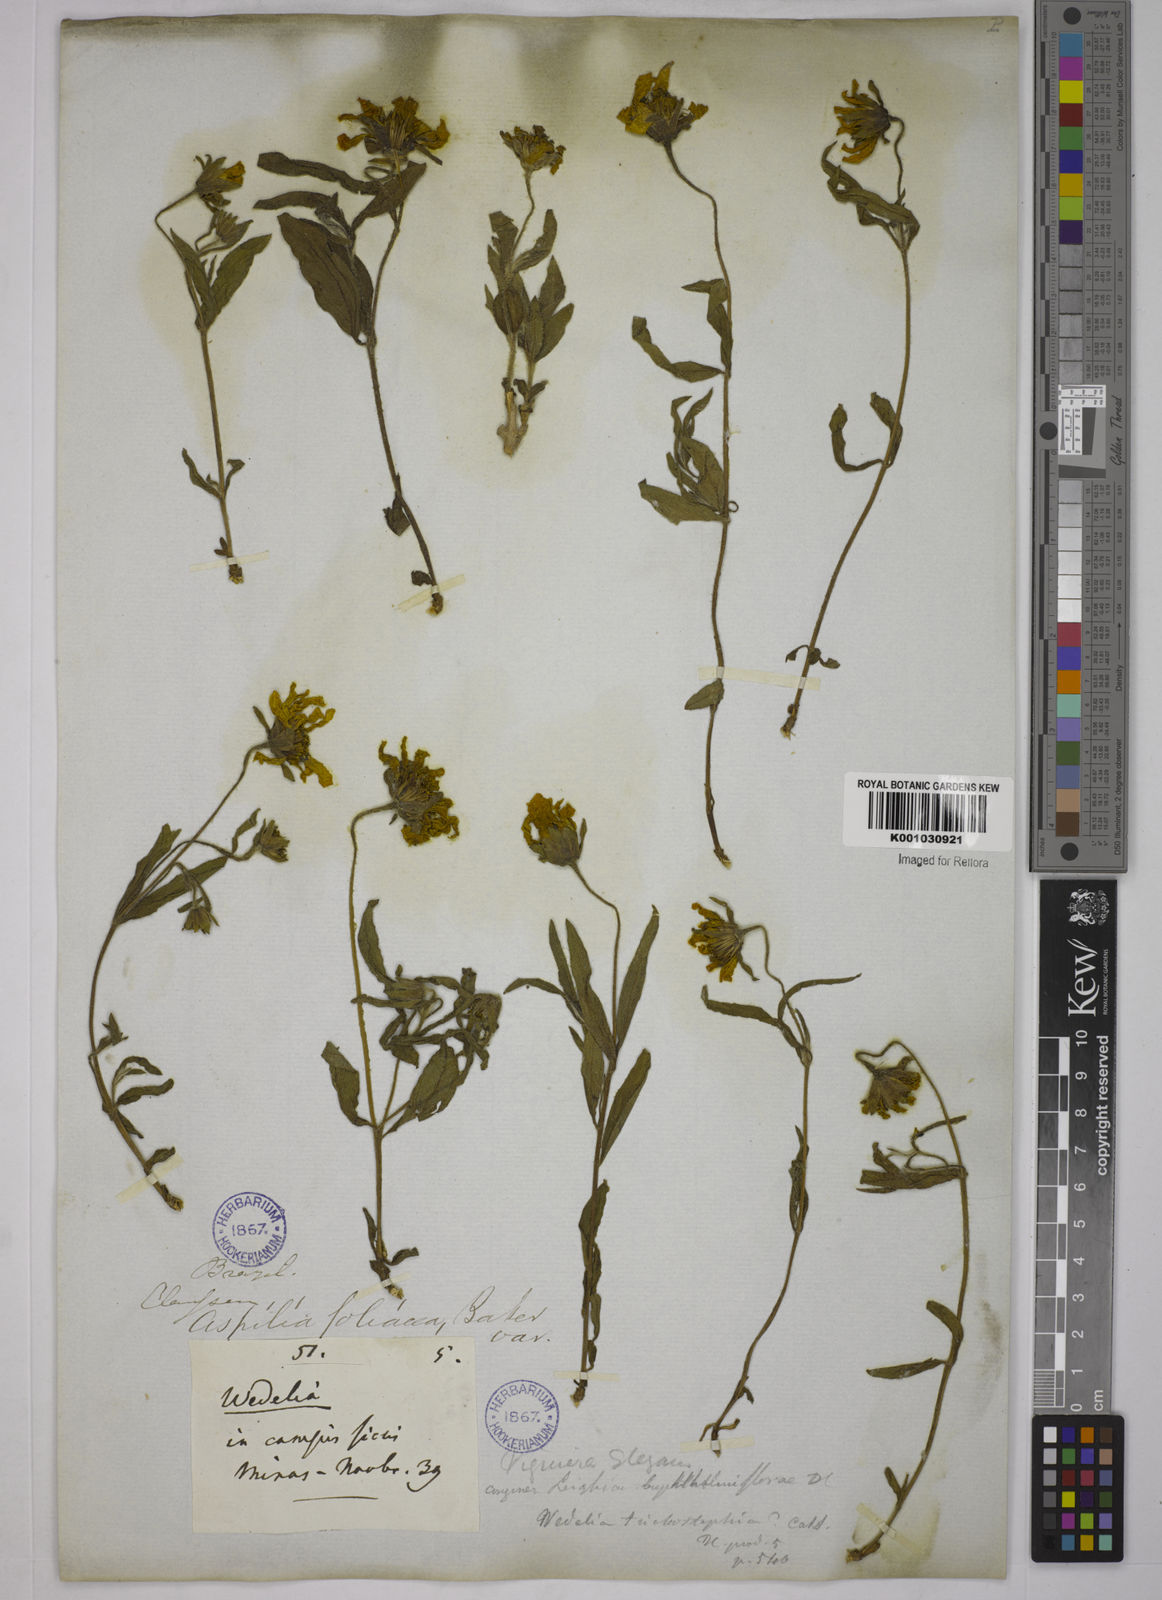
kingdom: Plantae
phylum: Tracheophyta
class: Magnoliopsida
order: Asterales
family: Asteraceae
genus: Wedelia
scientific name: Wedelia foliacea
